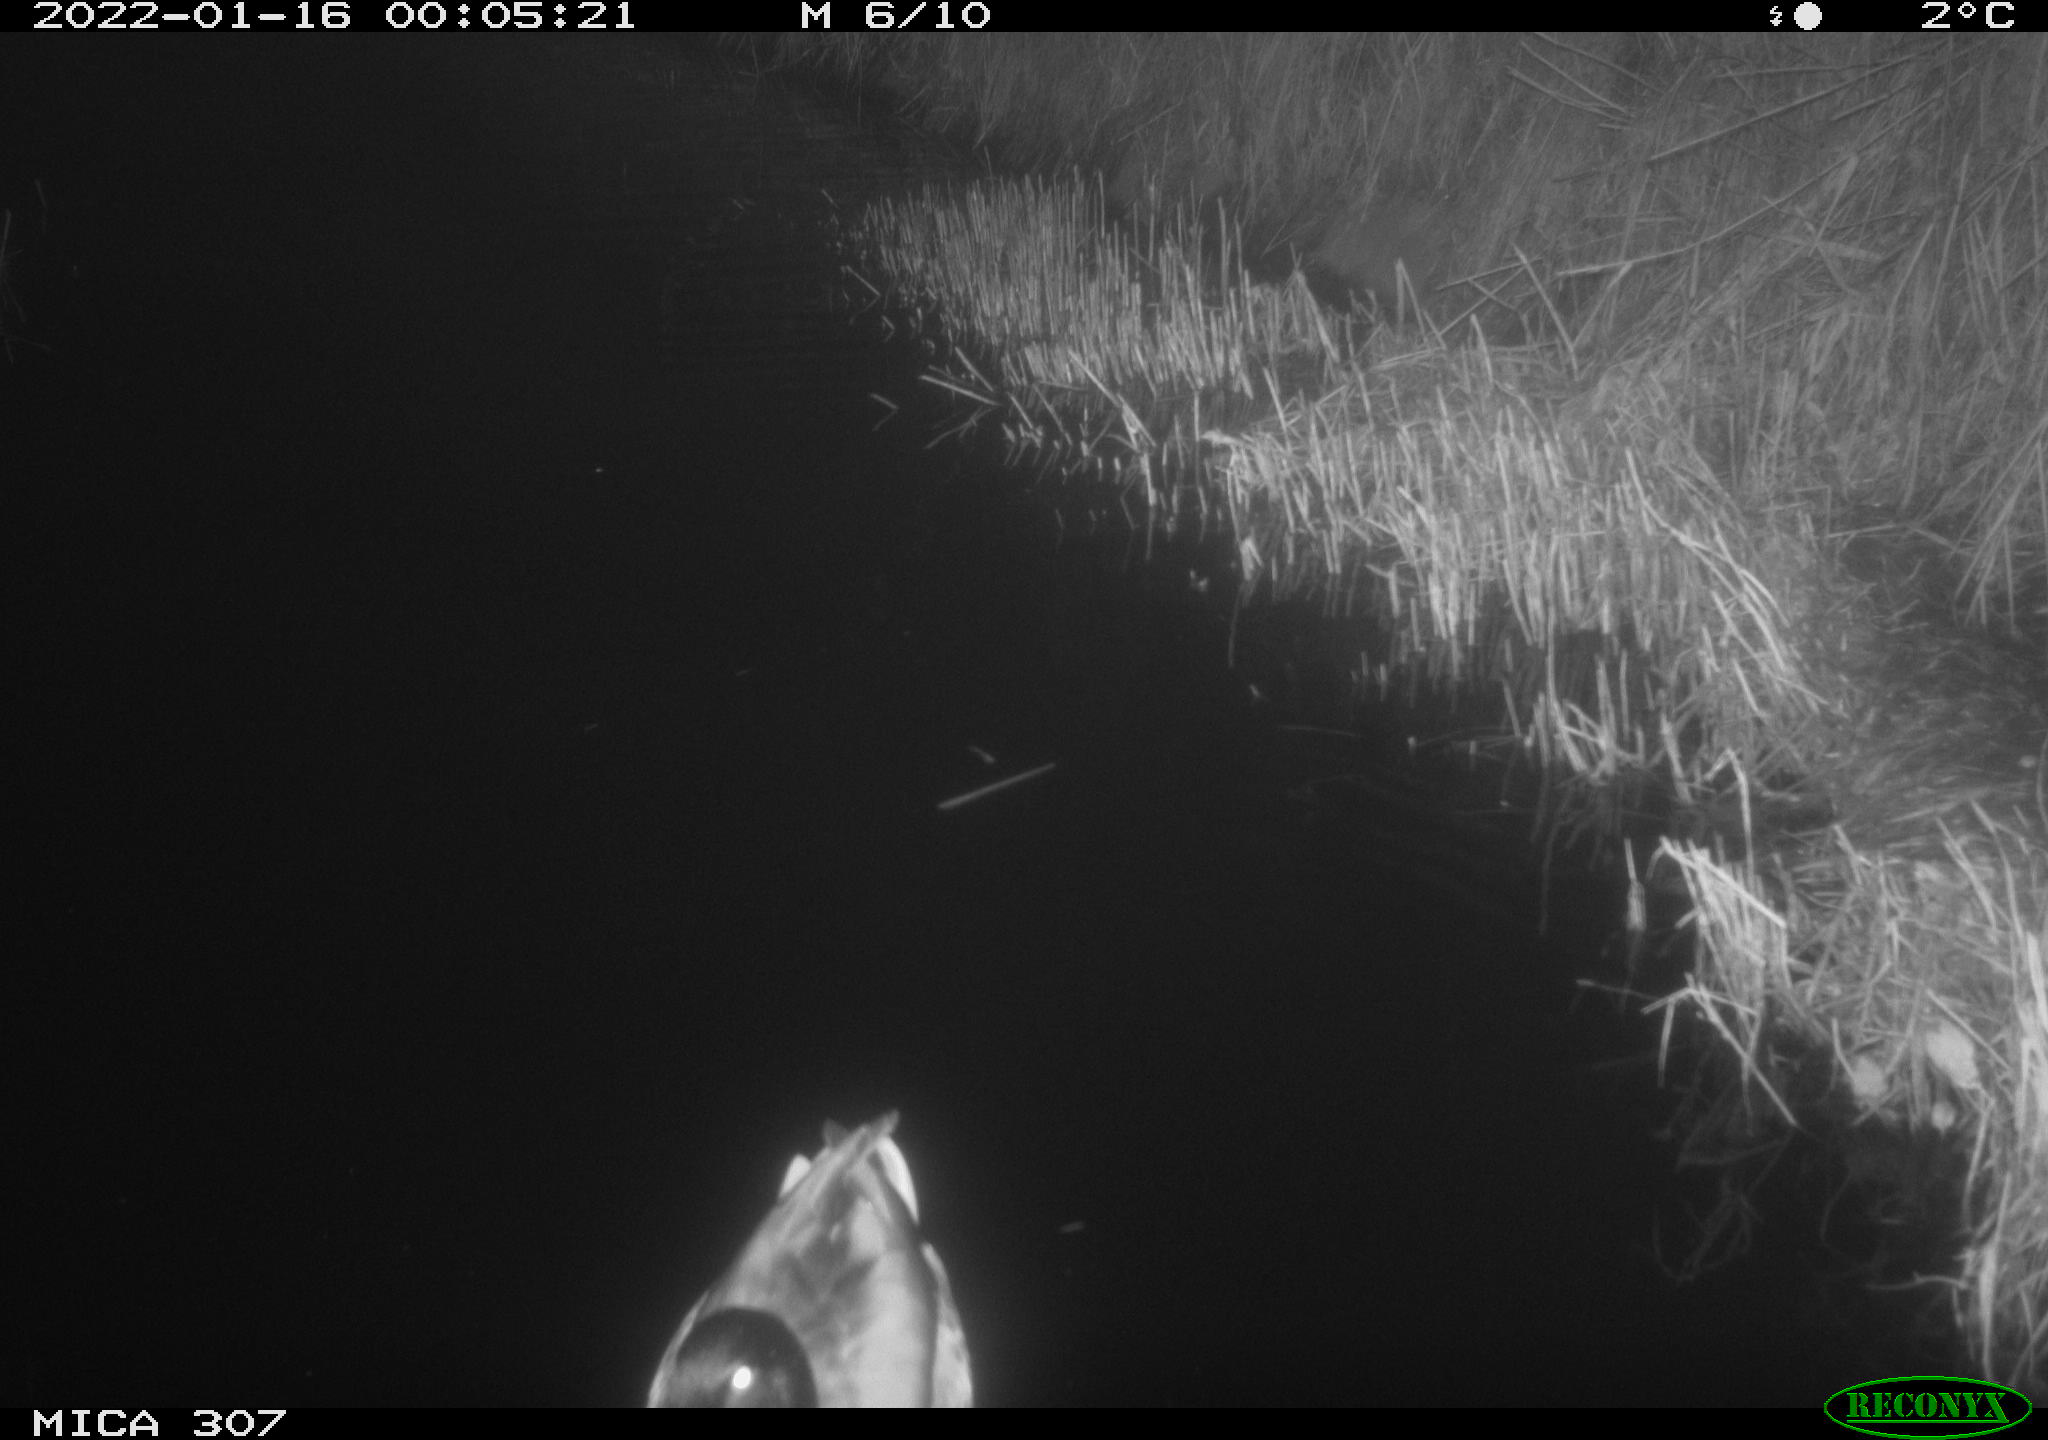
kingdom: Animalia
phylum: Chordata
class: Aves
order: Anseriformes
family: Anatidae
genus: Anas
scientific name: Anas
